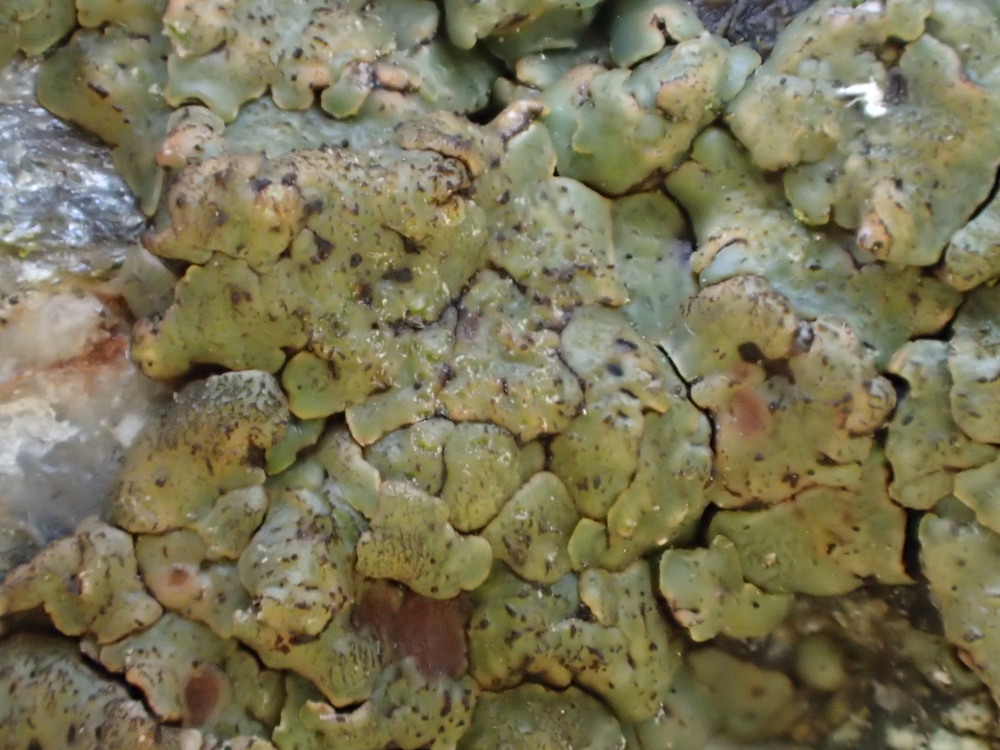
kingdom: Fungi
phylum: Ascomycota
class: Lecanoromycetes
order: Acarosporales
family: Acarosporaceae
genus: Acarospora
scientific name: Acarospora fuscata
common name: brun småsporelav
